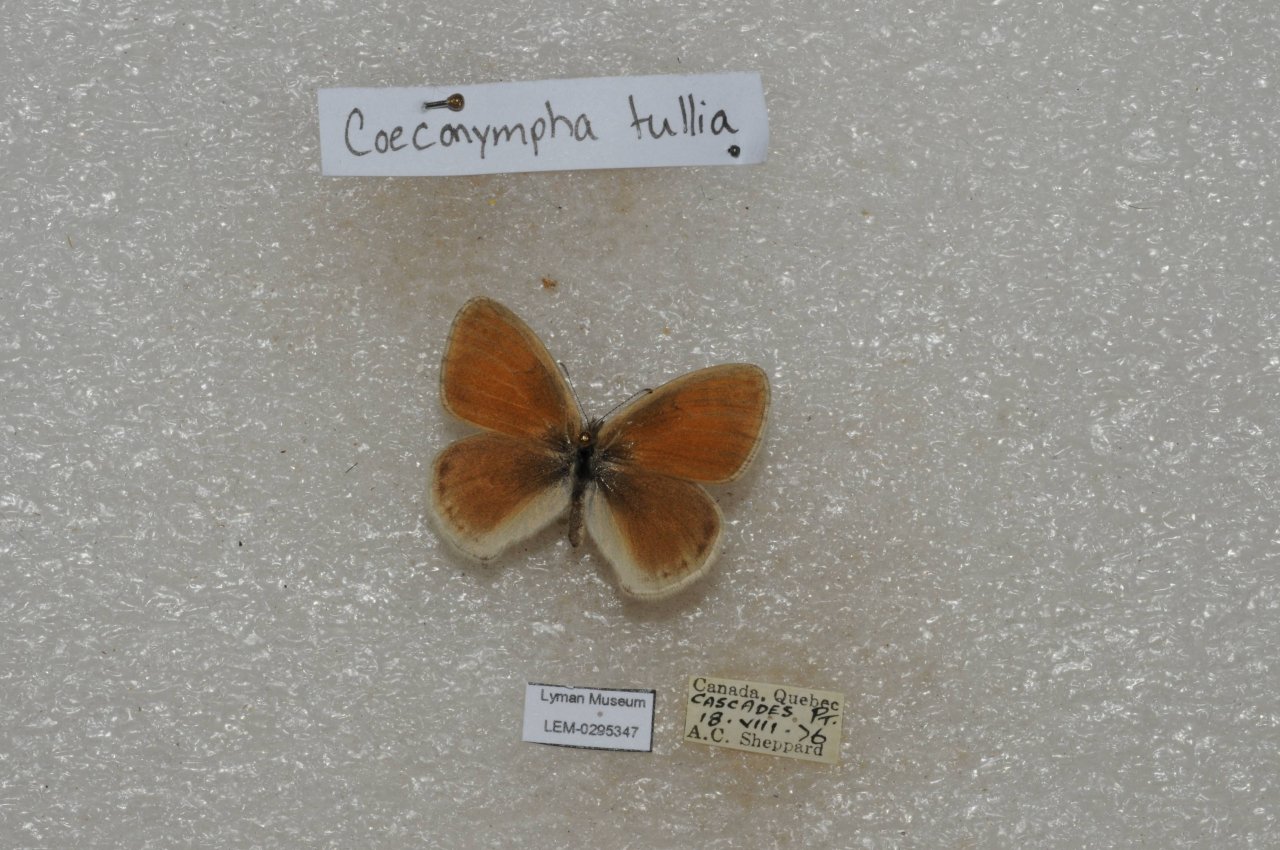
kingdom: Animalia
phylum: Arthropoda
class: Insecta
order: Lepidoptera
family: Nymphalidae
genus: Coenonympha
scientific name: Coenonympha tullia
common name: Large Heath
